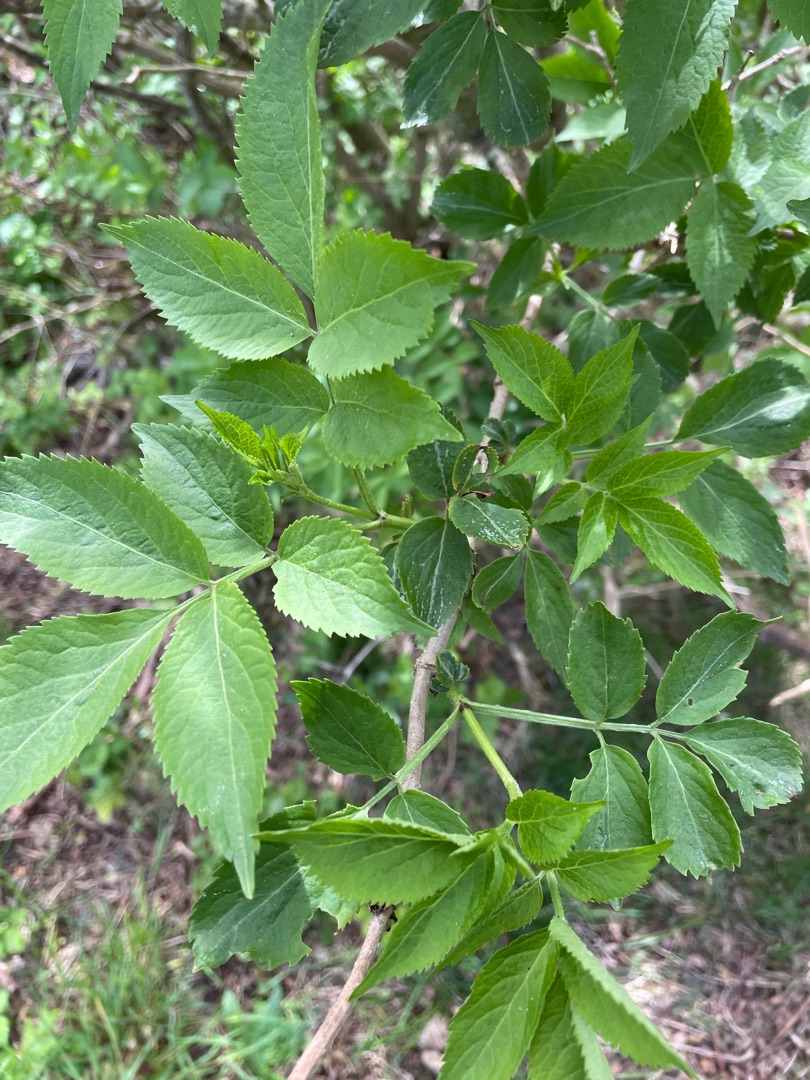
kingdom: Plantae
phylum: Tracheophyta
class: Magnoliopsida
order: Dipsacales
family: Viburnaceae
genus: Sambucus
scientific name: Sambucus nigra
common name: Almindelig hyld
